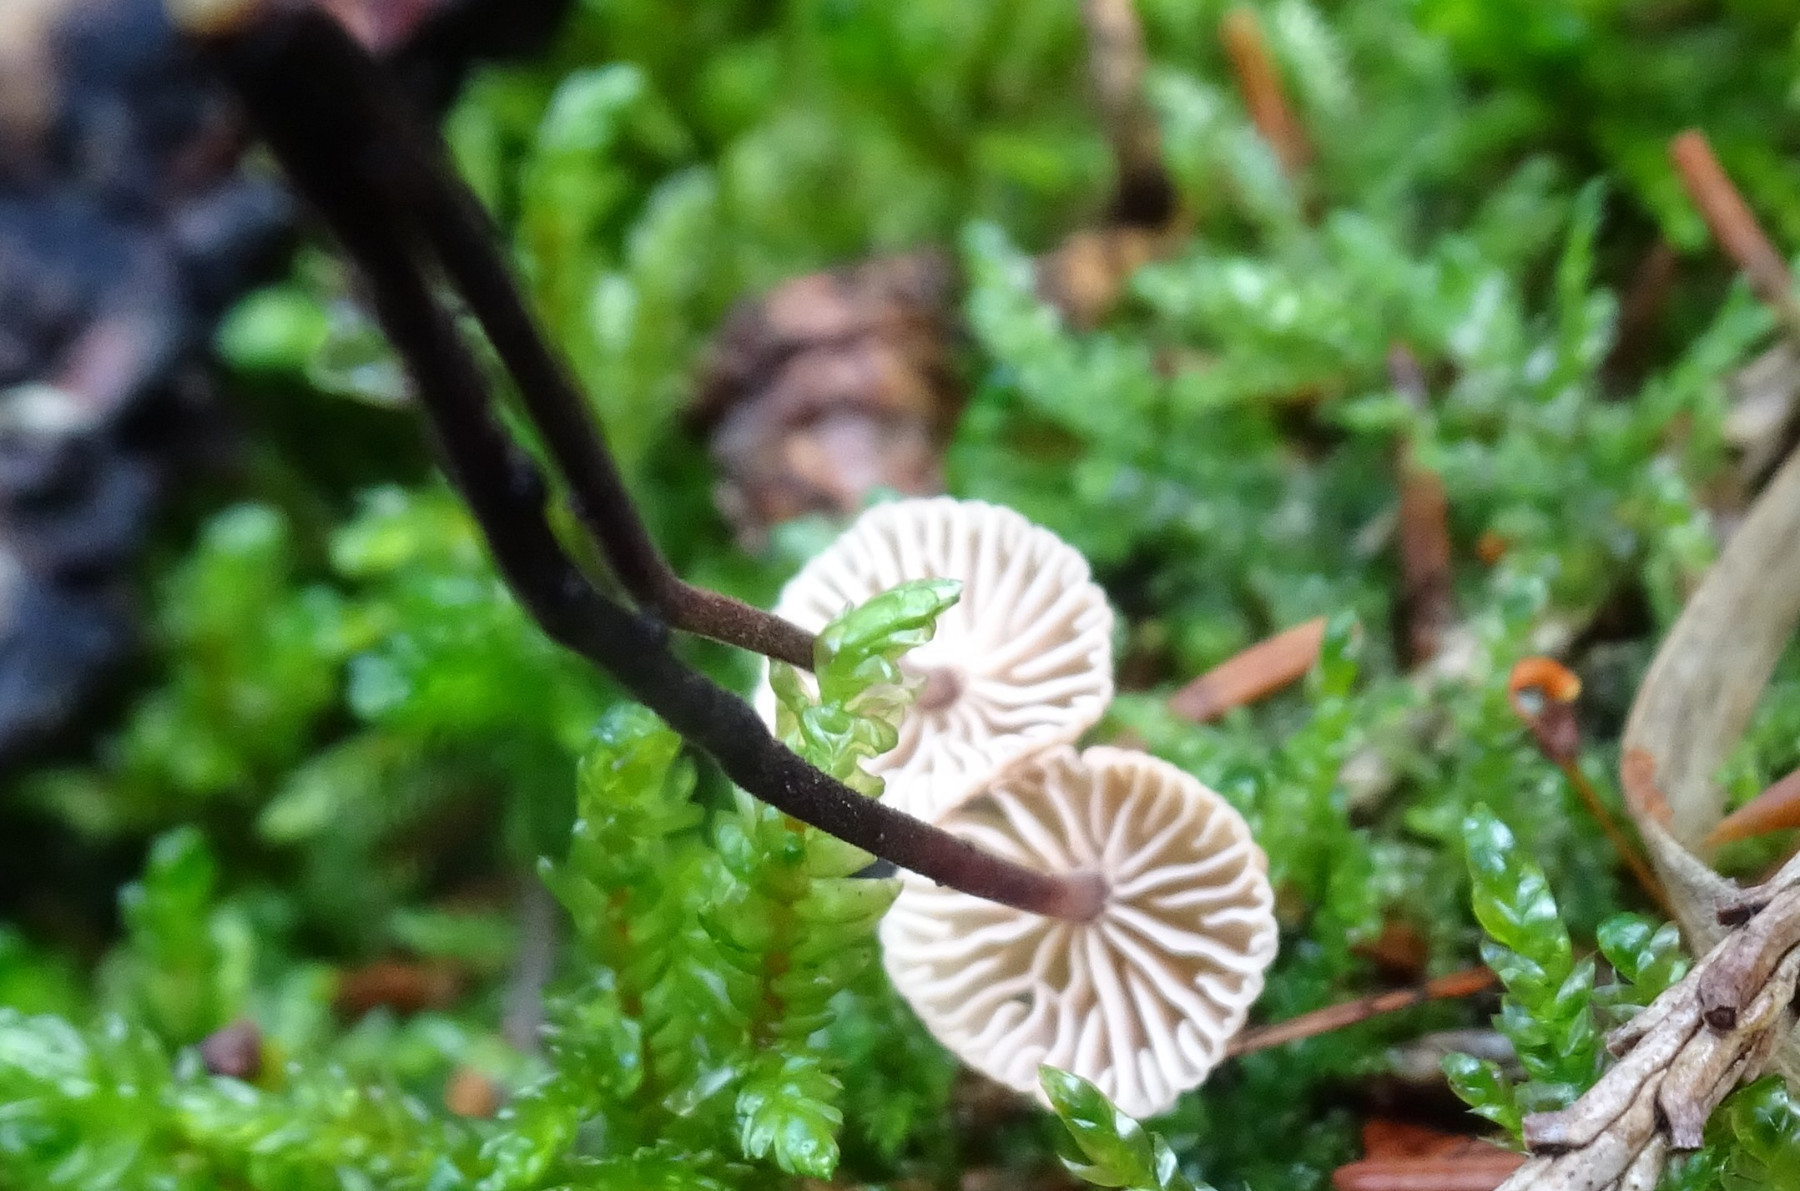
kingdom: Fungi
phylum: Basidiomycota
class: Agaricomycetes
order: Agaricales
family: Omphalotaceae
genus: Paragymnopus
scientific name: Paragymnopus perforans
